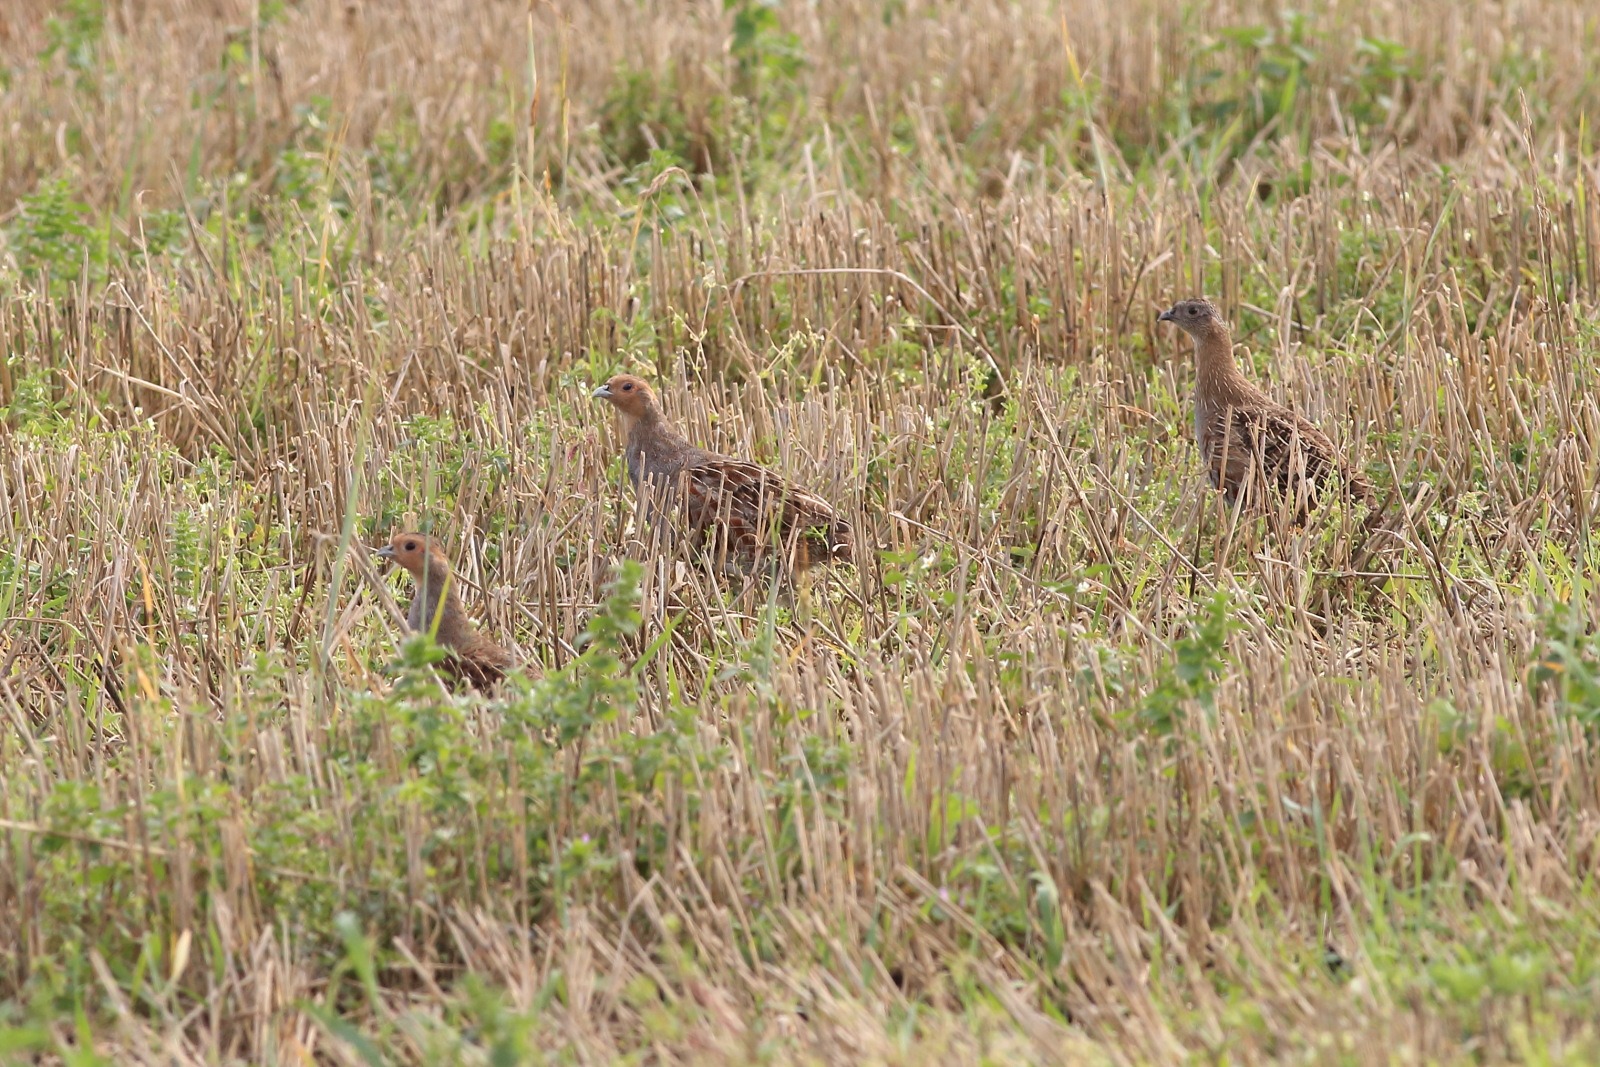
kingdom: Animalia
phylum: Chordata
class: Aves
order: Galliformes
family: Phasianidae
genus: Perdix
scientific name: Perdix perdix
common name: Agerhøne
